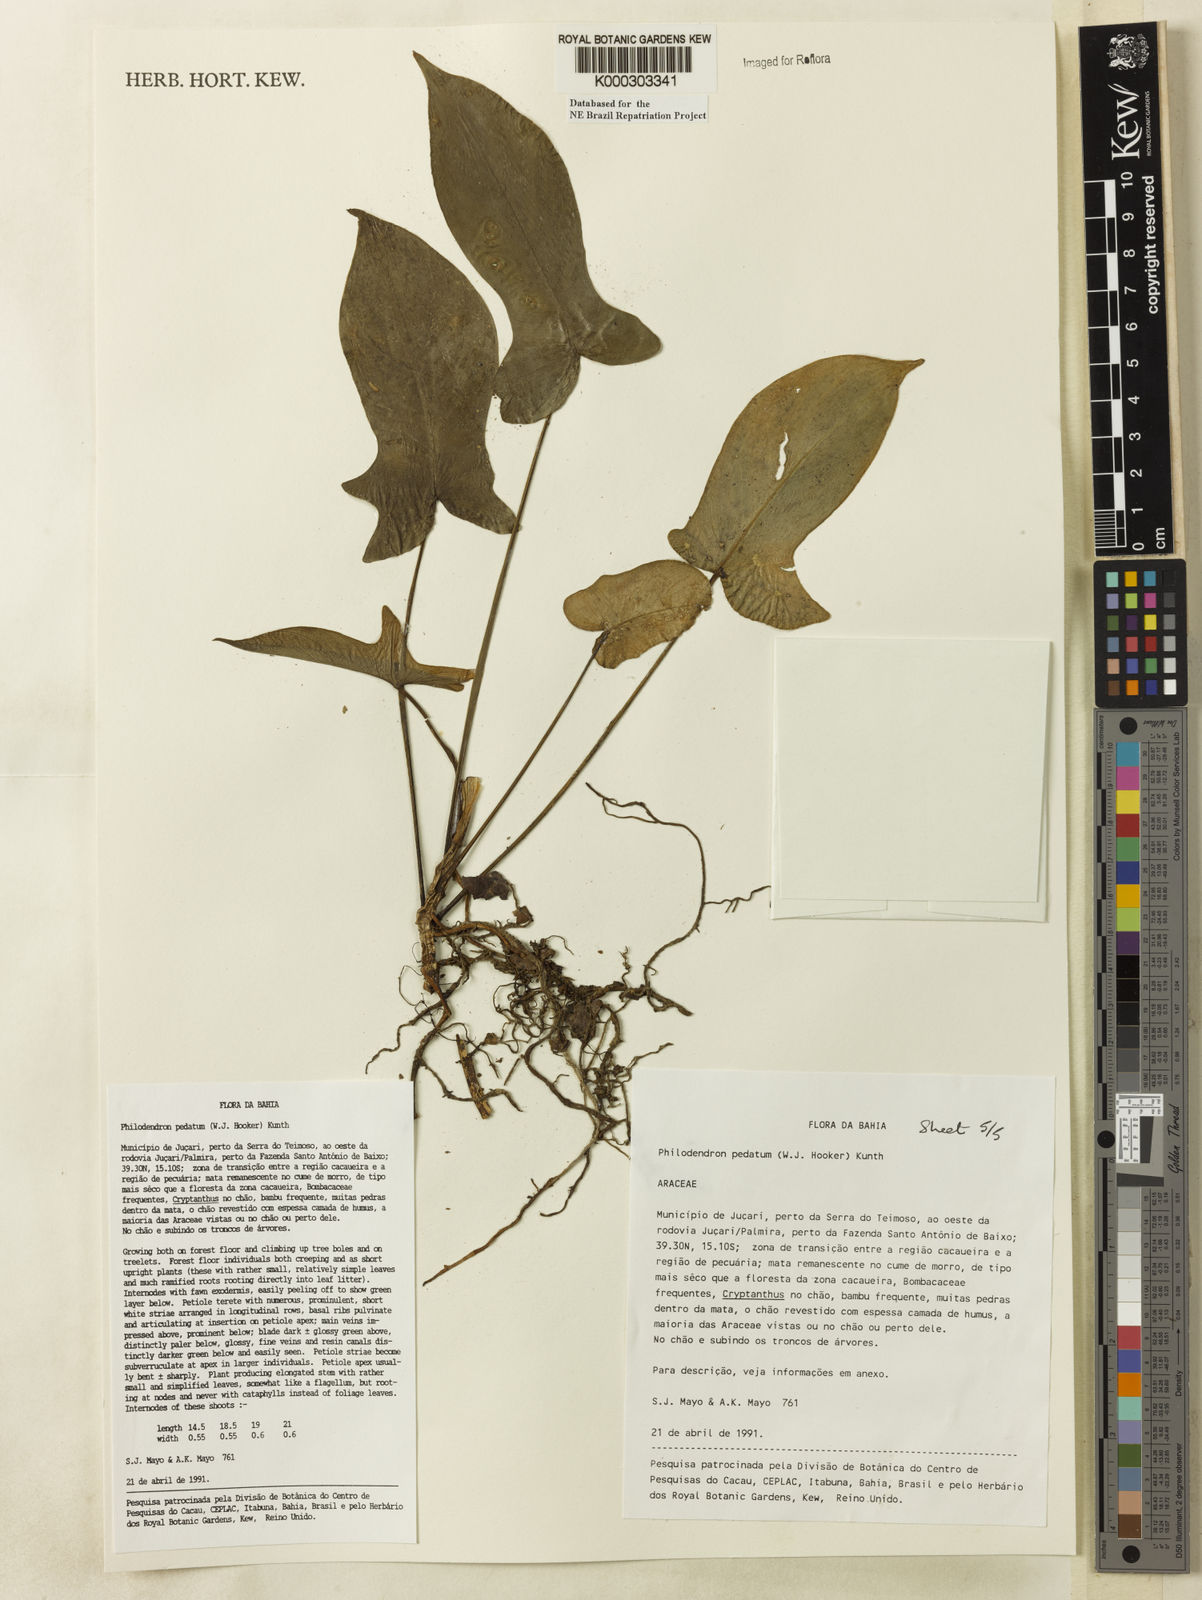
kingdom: Plantae
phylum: Tracheophyta
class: Liliopsida
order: Alismatales
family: Araceae
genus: Philodendron
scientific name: Philodendron pedatum
